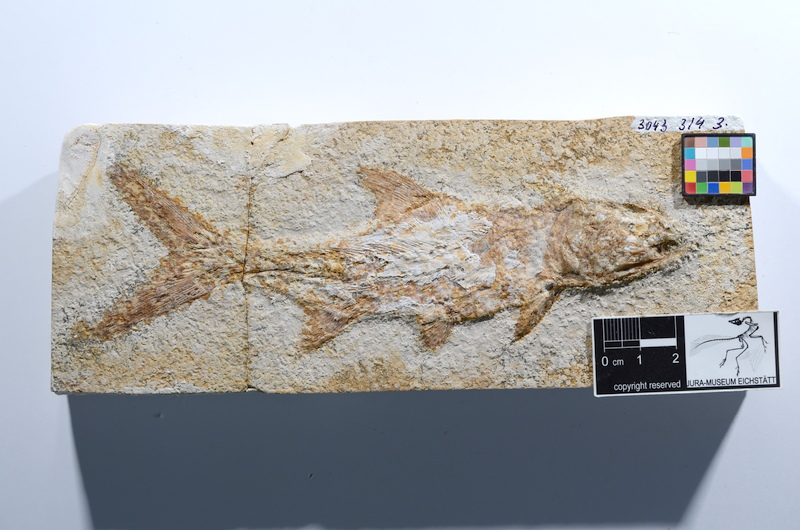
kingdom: Animalia
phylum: Chordata
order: Amiiformes
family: Caturidae
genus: Caturus
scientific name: Caturus
